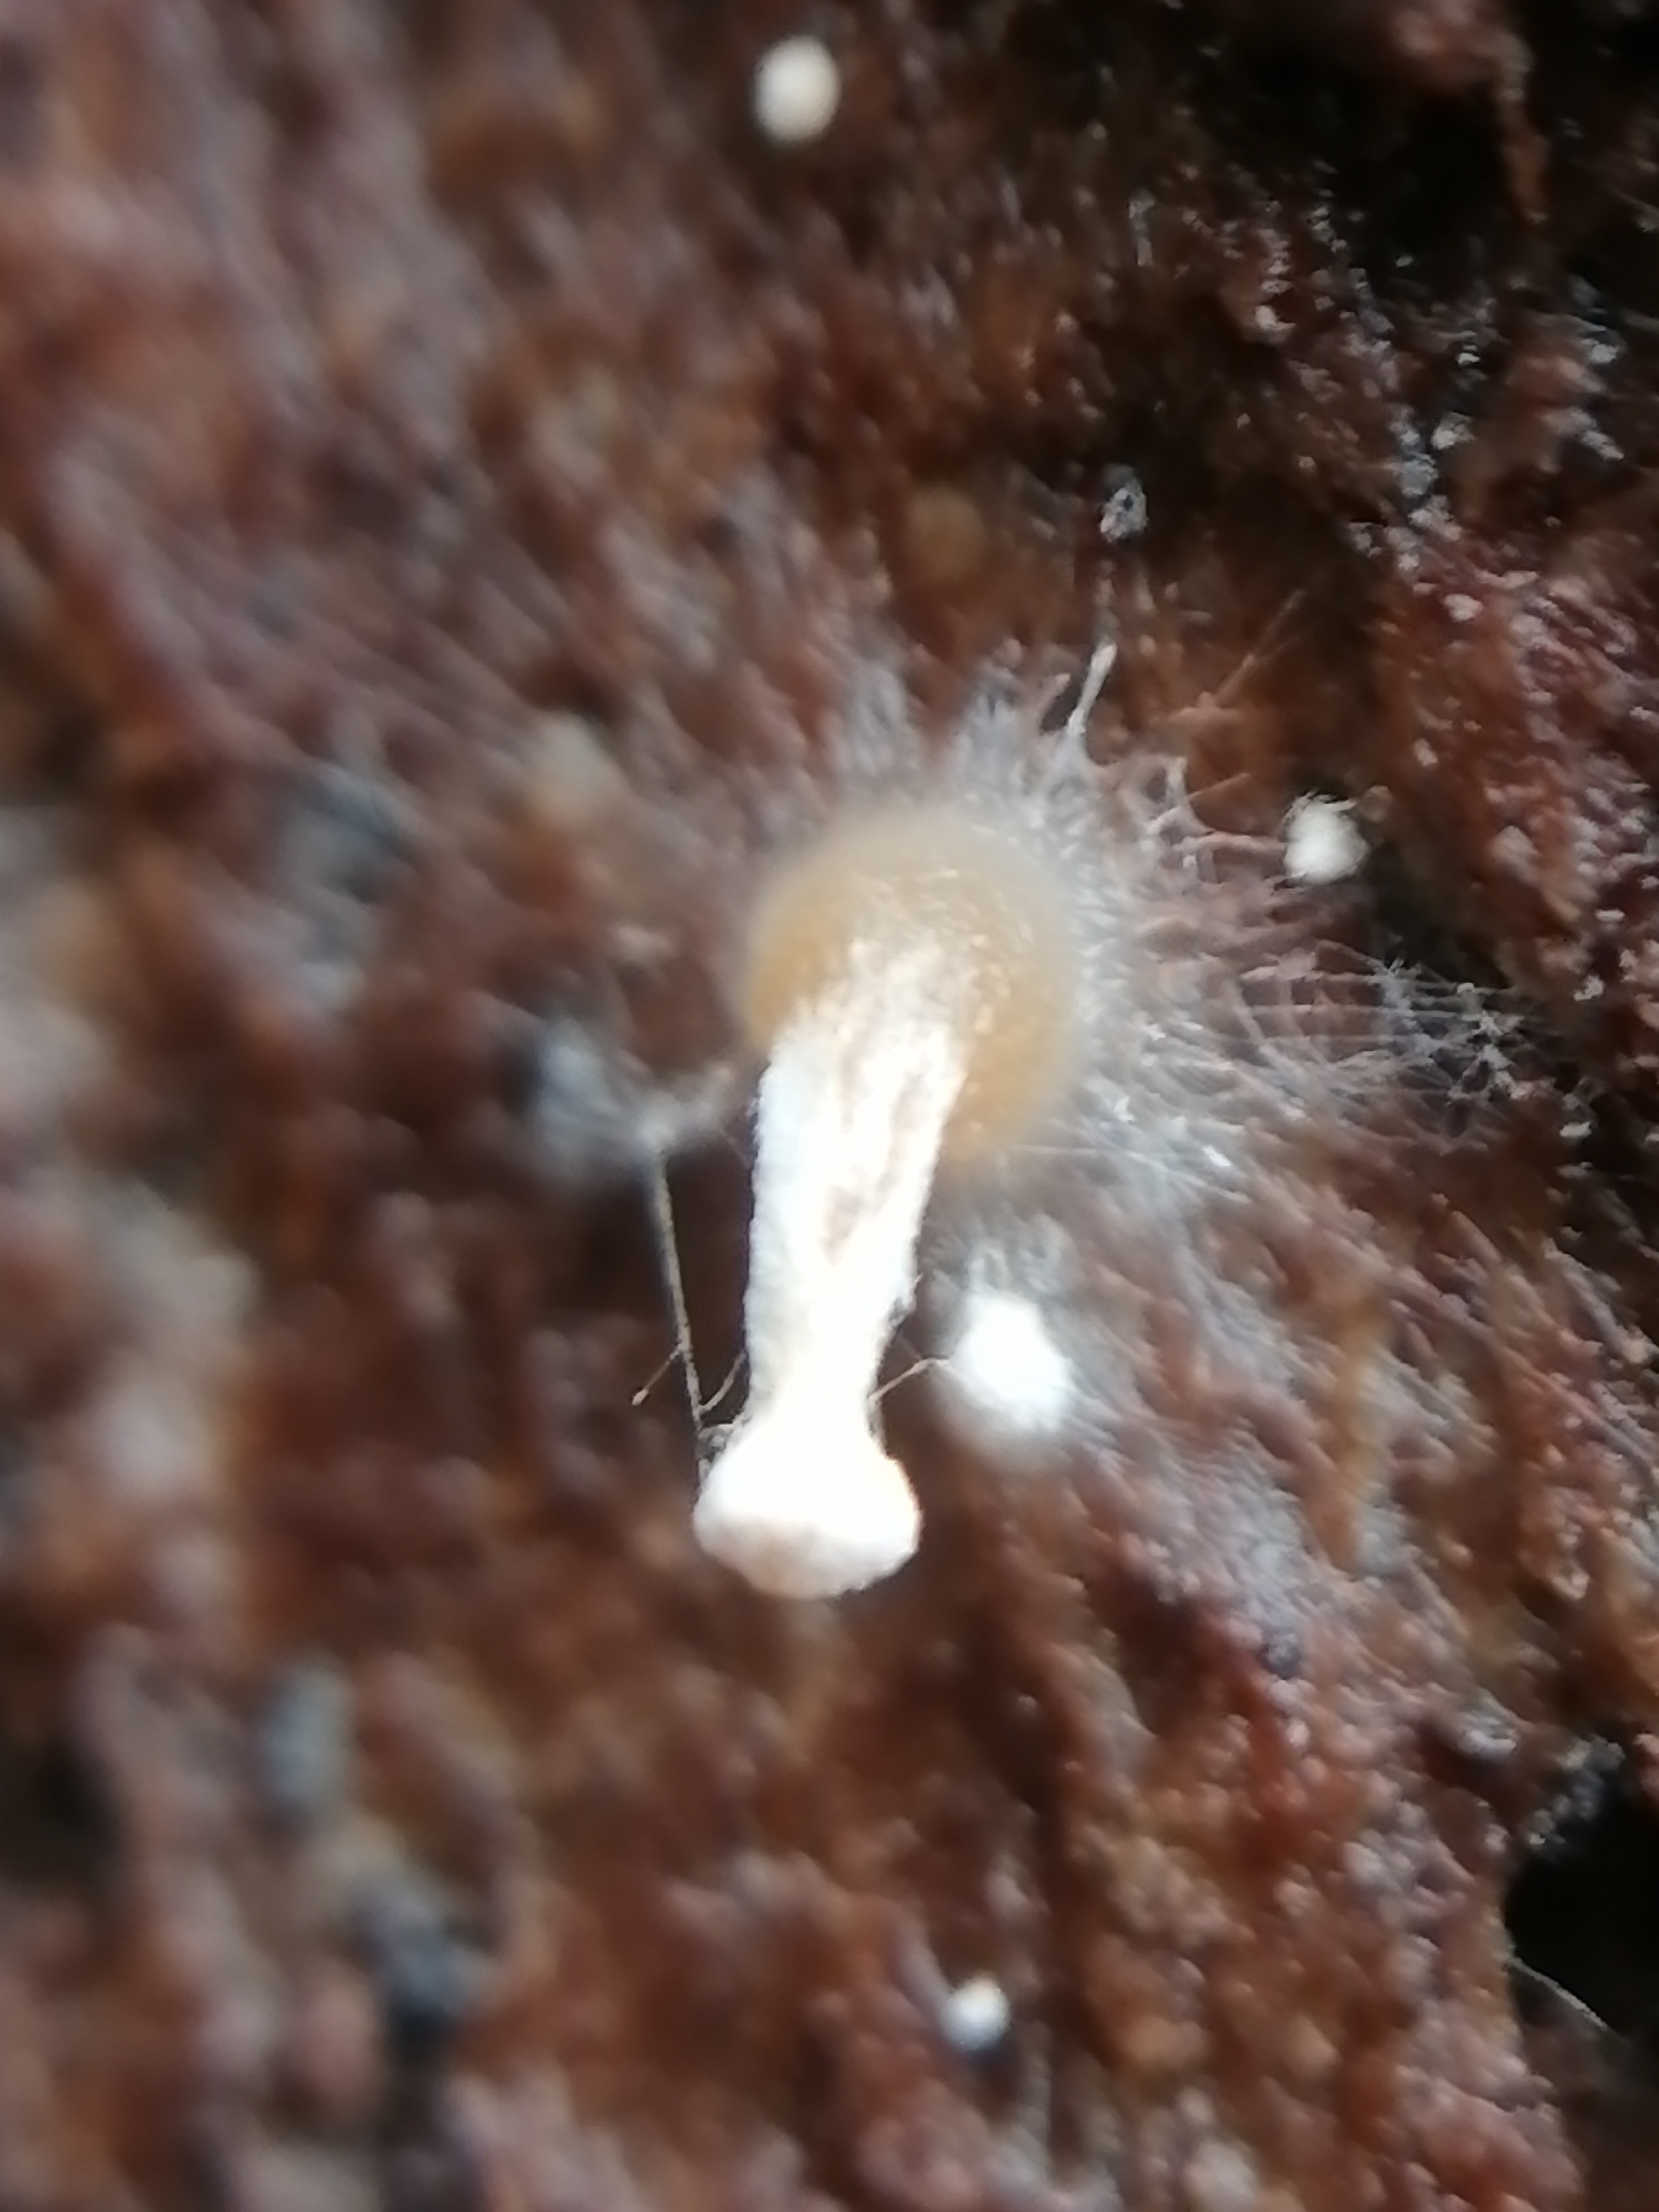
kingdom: Fungi
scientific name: Fungi
